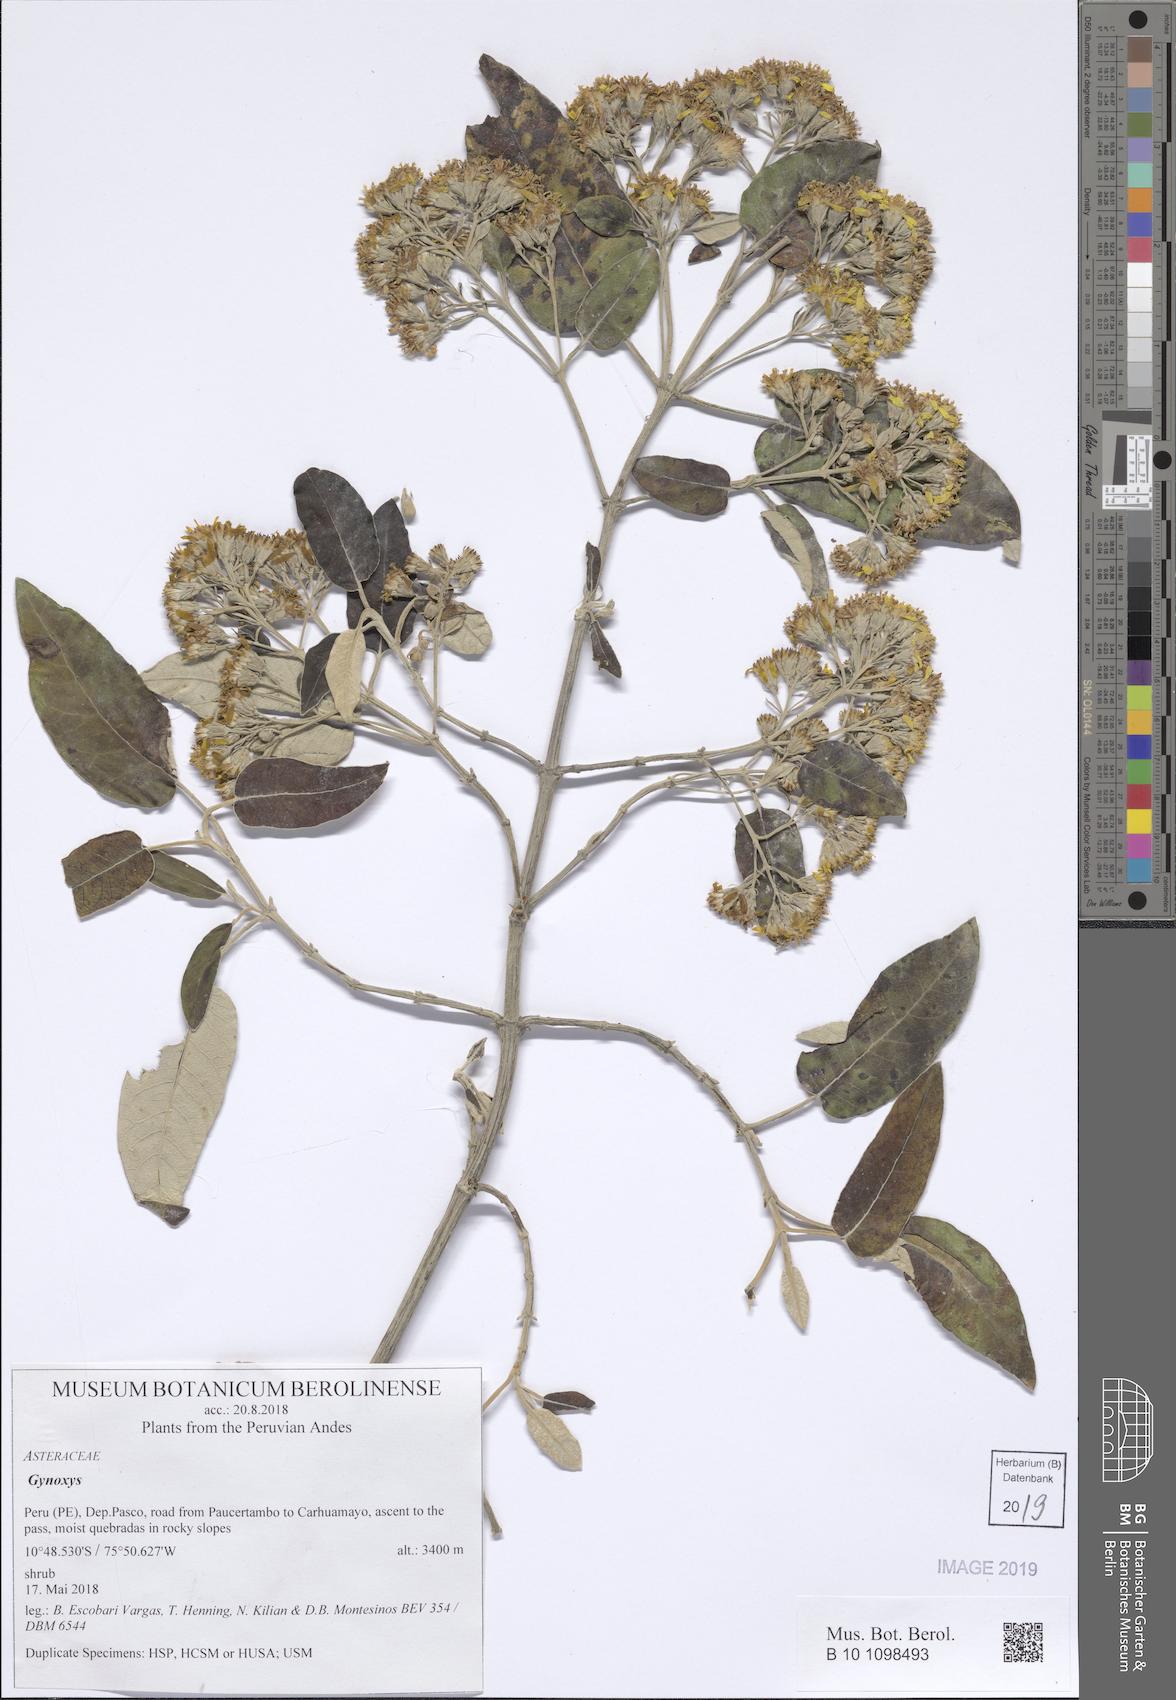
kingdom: Plantae
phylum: Tracheophyta
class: Magnoliopsida
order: Asterales
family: Asteraceae
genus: Gynoxys
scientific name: Gynoxys
